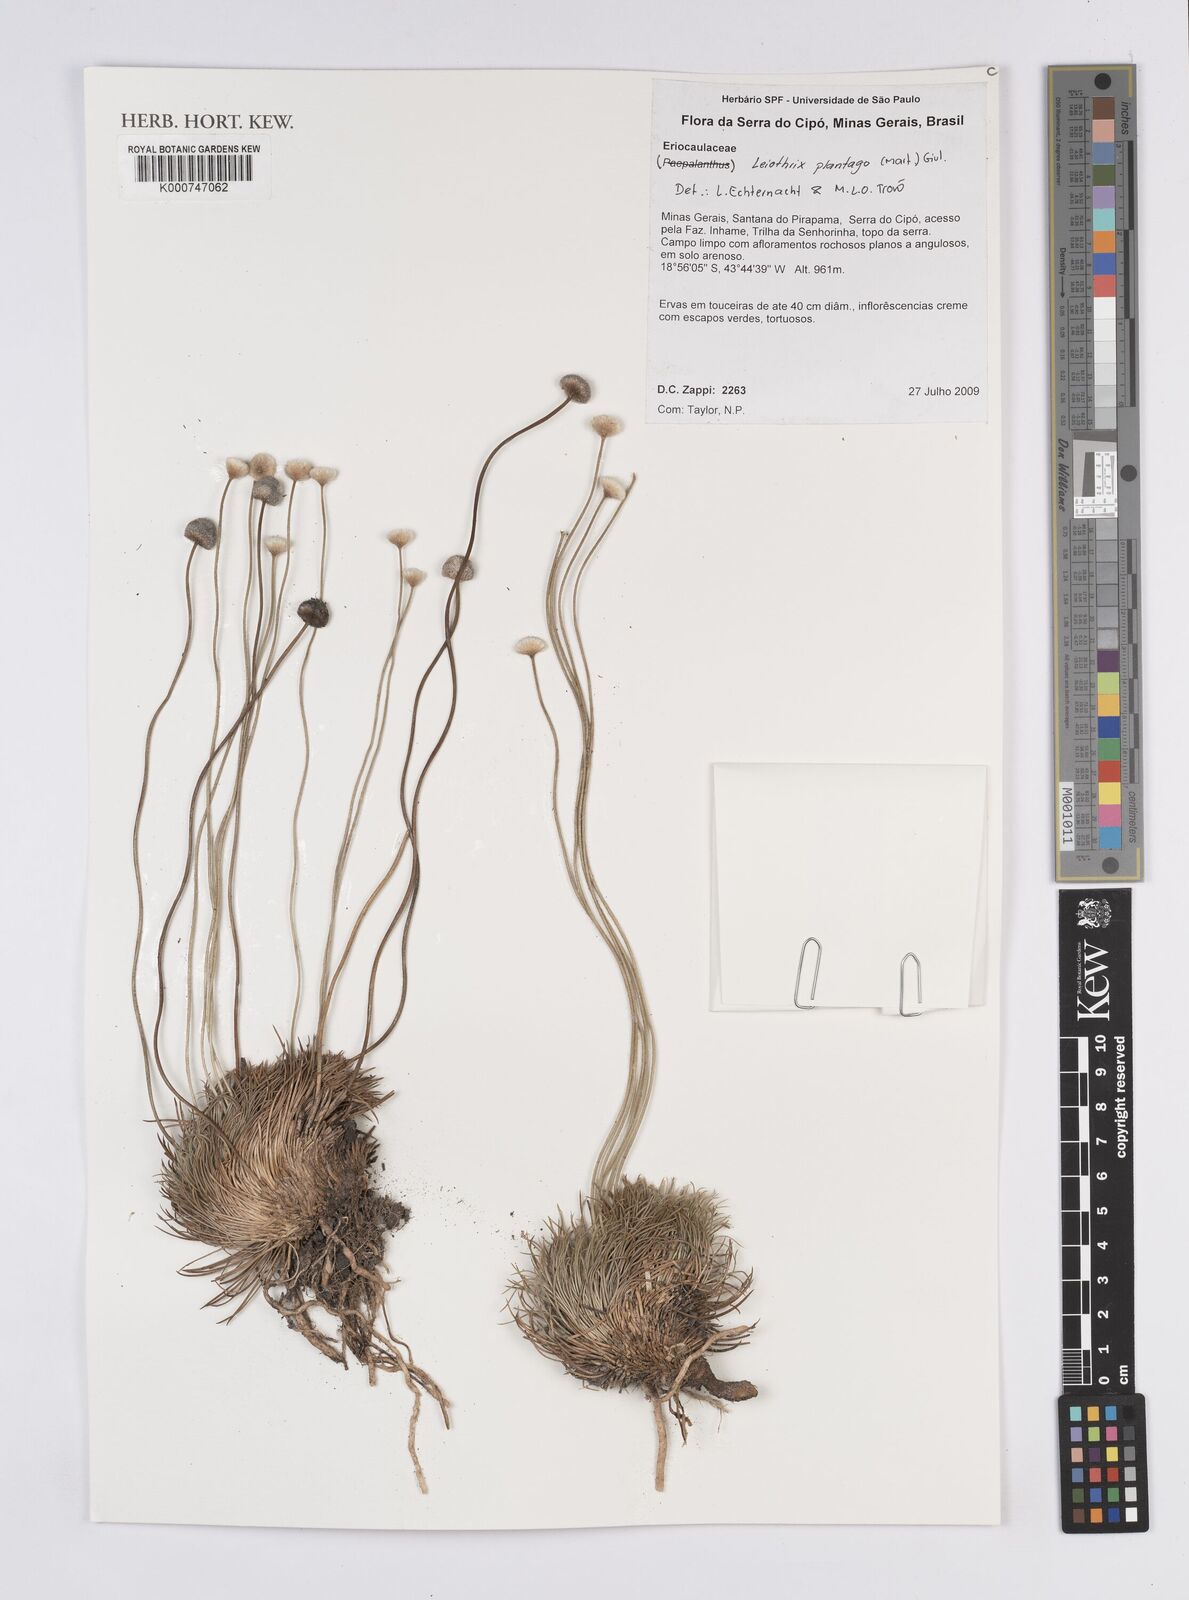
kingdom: Plantae
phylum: Tracheophyta
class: Liliopsida
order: Poales
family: Eriocaulaceae
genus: Leiothrix
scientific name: Leiothrix plantago
